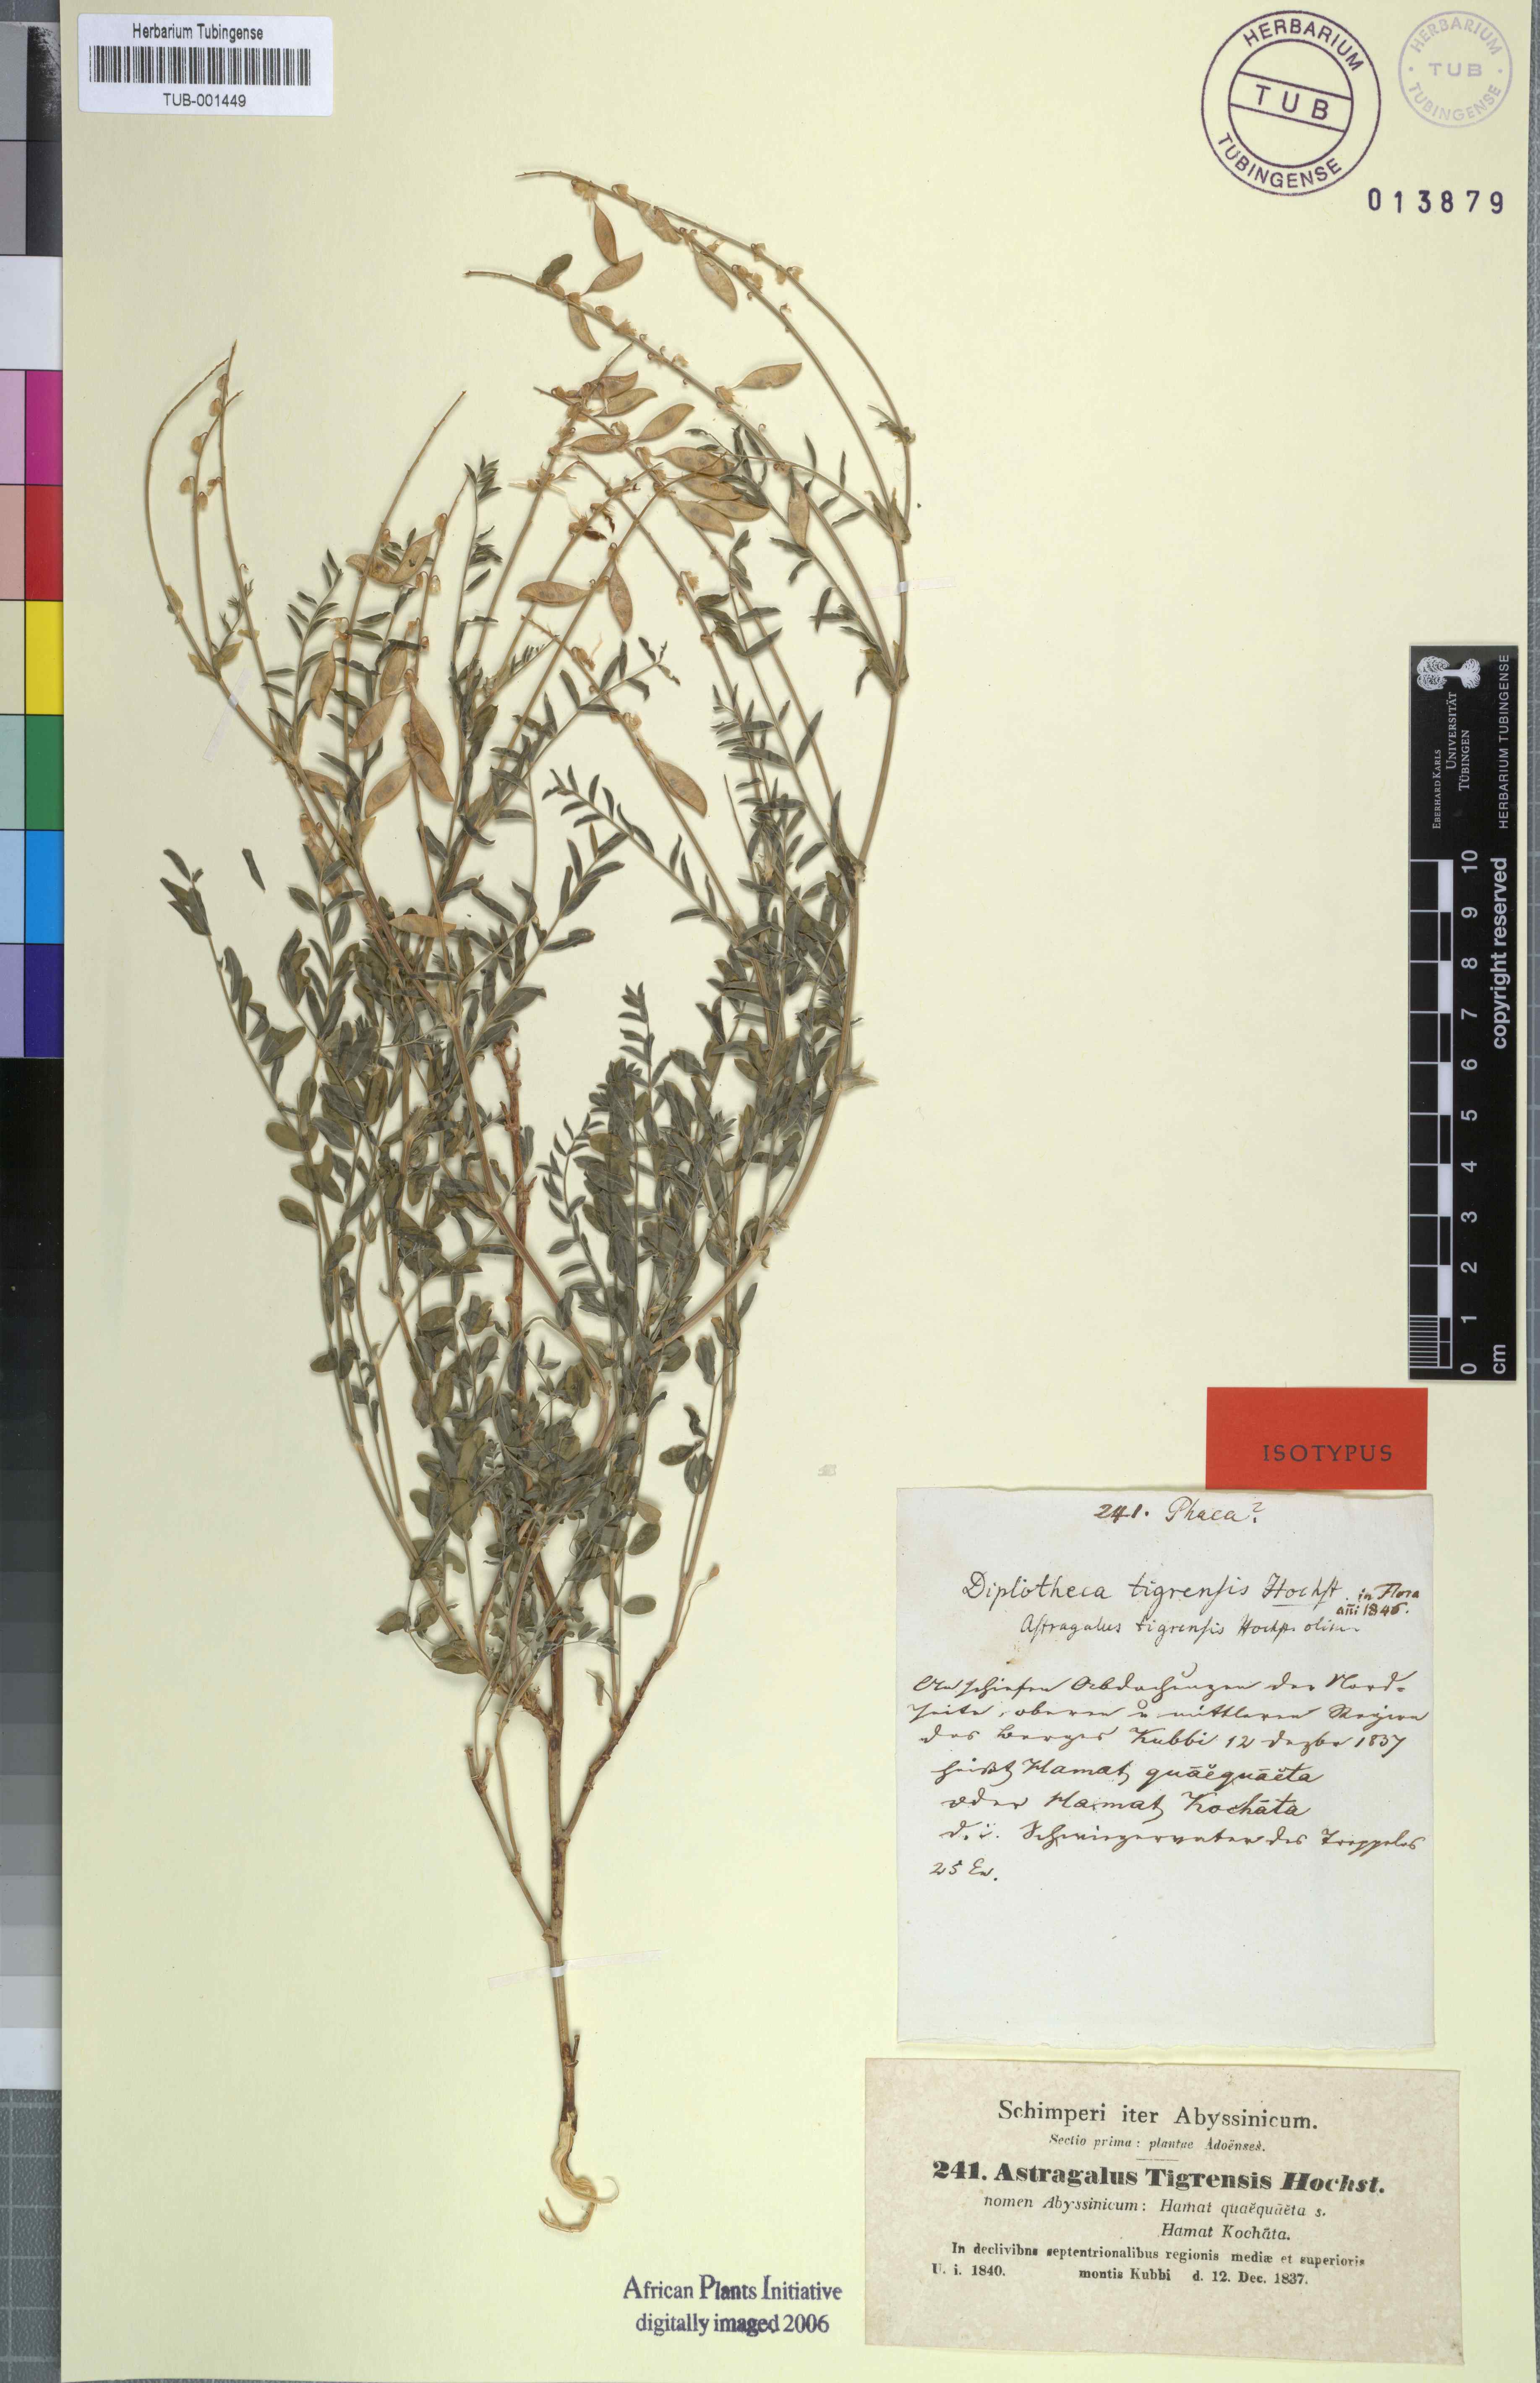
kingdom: Plantae
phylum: Tracheophyta
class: Magnoliopsida
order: Fabales
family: Fabaceae
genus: Astragalus
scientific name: Astragalus atropilosulus
